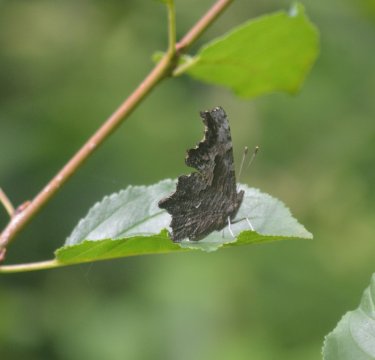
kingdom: Animalia
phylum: Arthropoda
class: Insecta
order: Lepidoptera
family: Nymphalidae
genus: Polygonia
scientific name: Polygonia progne
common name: Gray Comma
